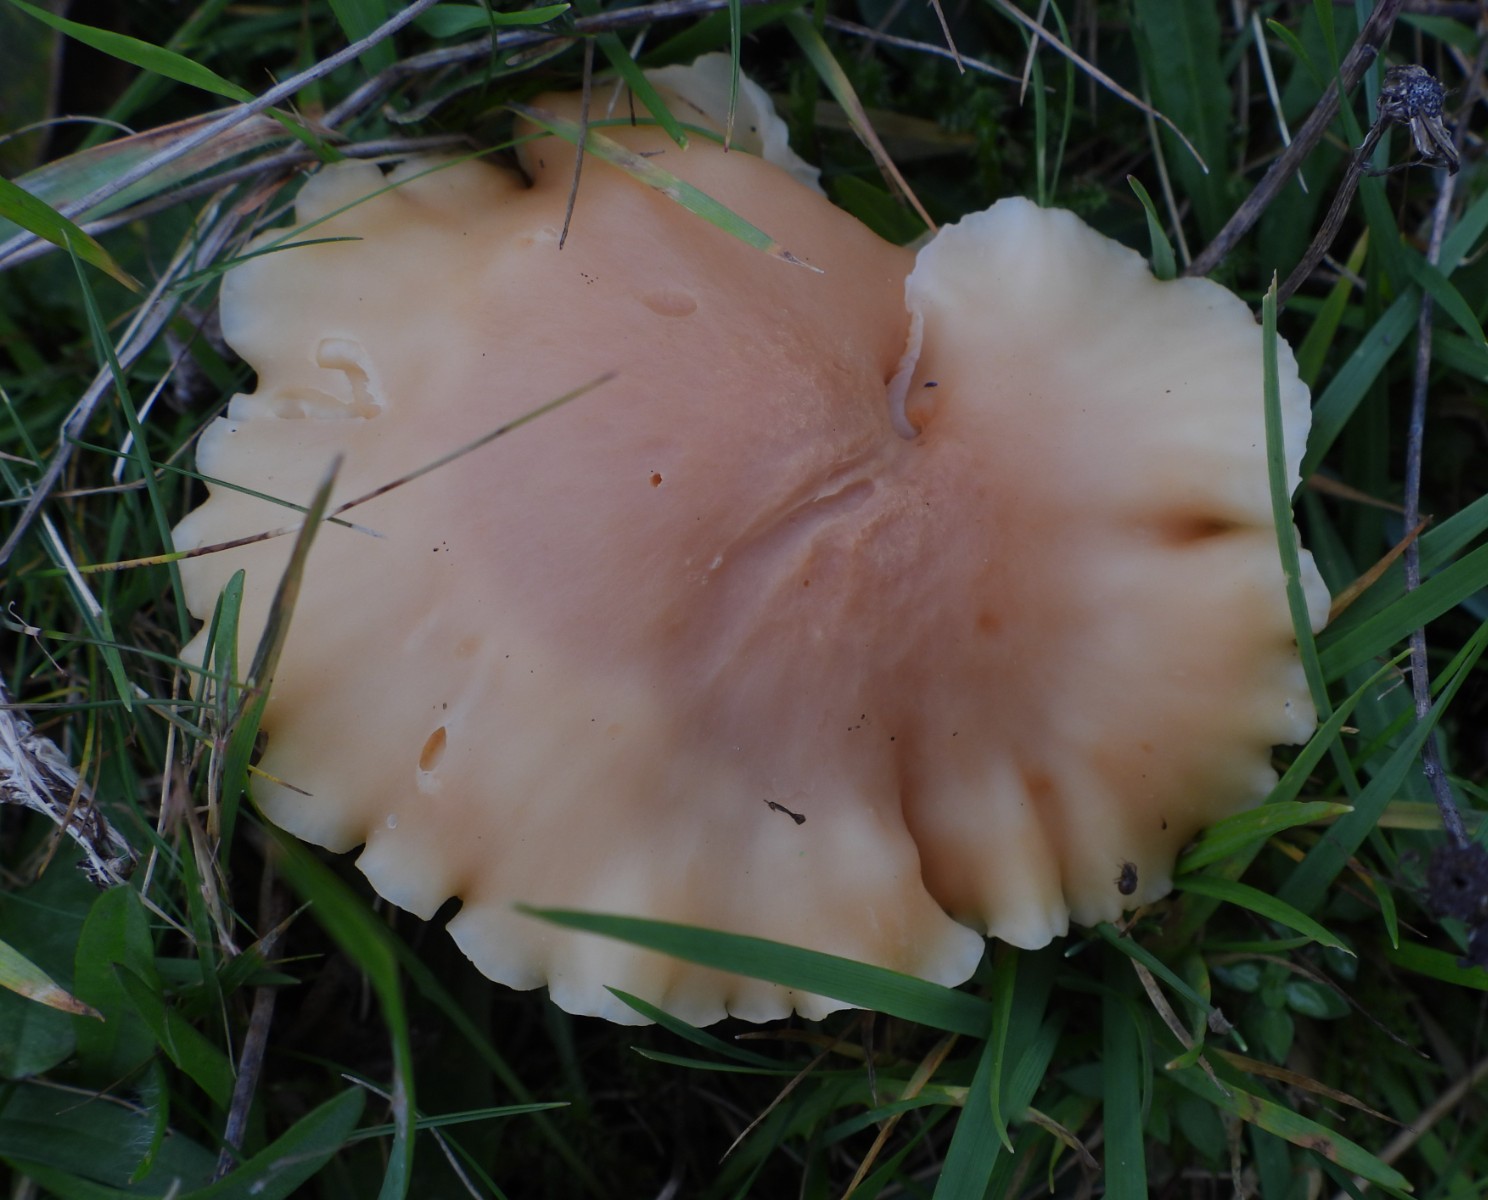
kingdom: Fungi
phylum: Basidiomycota
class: Agaricomycetes
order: Agaricales
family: Hygrophoraceae
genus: Cuphophyllus
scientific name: Cuphophyllus pratensis
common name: eng-vokshat
